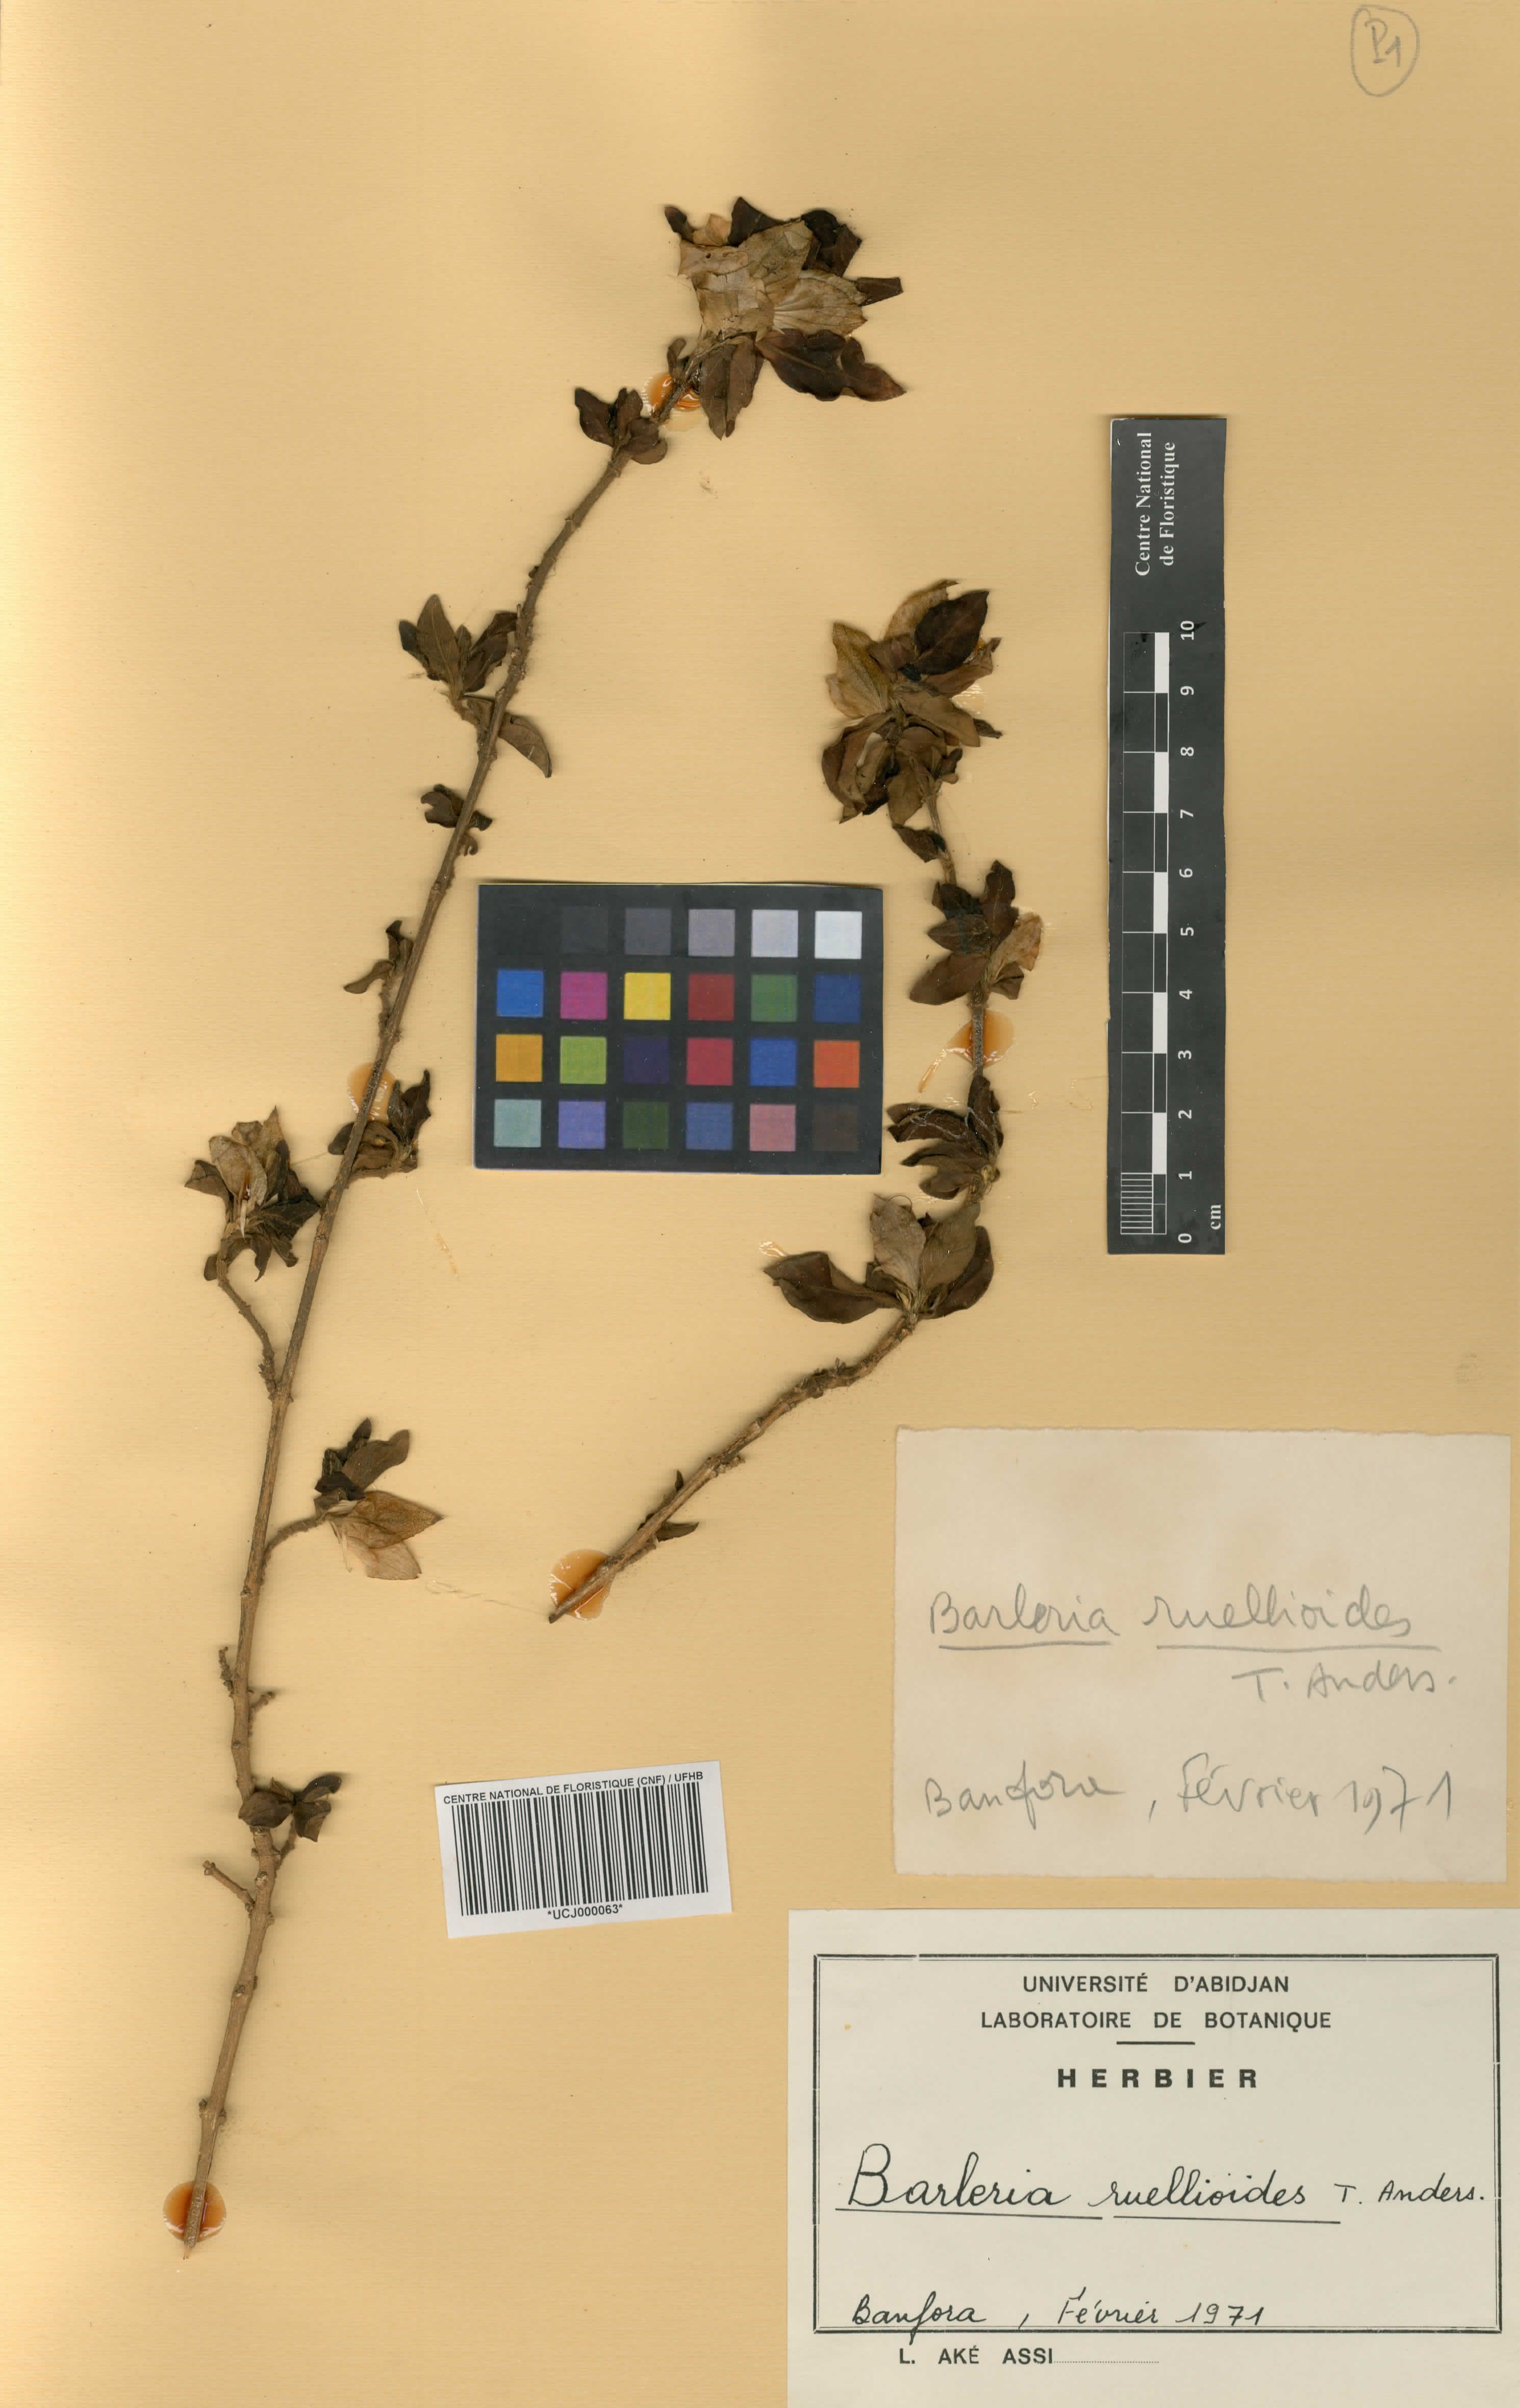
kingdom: Plantae
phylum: Tracheophyta
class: Magnoliopsida
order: Lamiales
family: Acanthaceae
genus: Barleria
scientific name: Barleria ruellioides
